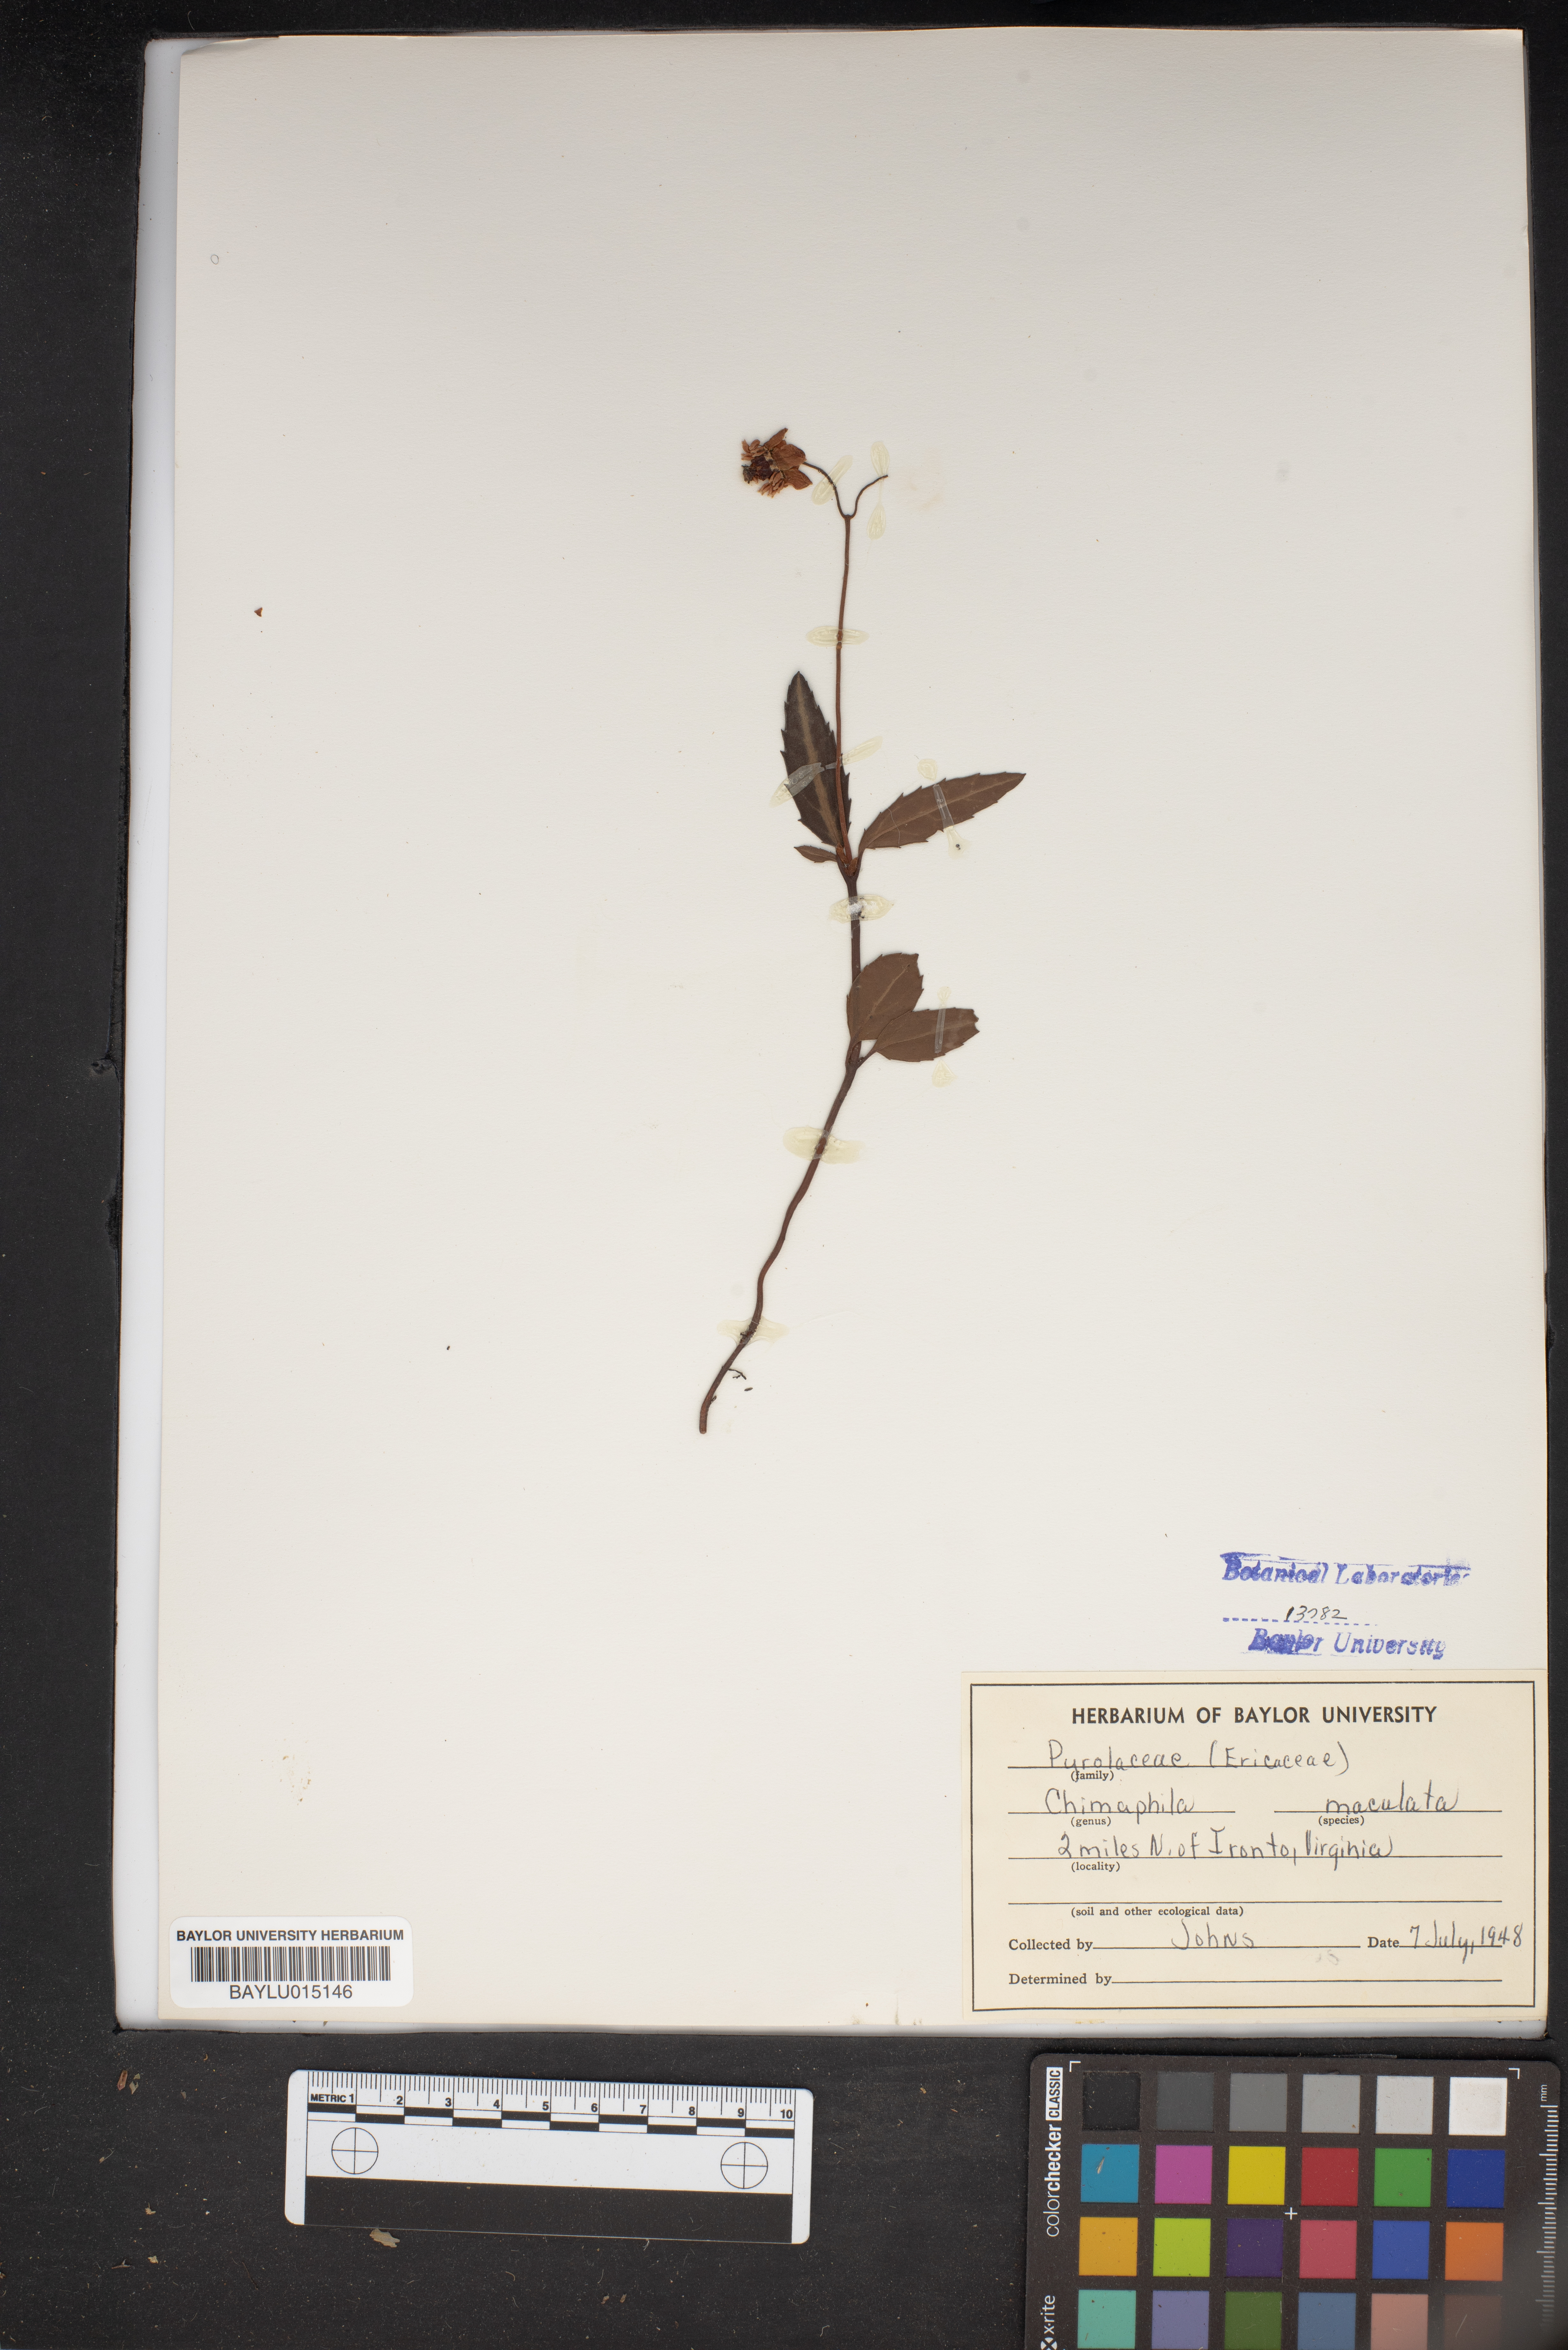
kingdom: Plantae
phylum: Tracheophyta
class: Magnoliopsida
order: Ericales
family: Ericaceae
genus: Chimaphila
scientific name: Chimaphila maculata
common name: Spotted pipsissewa
